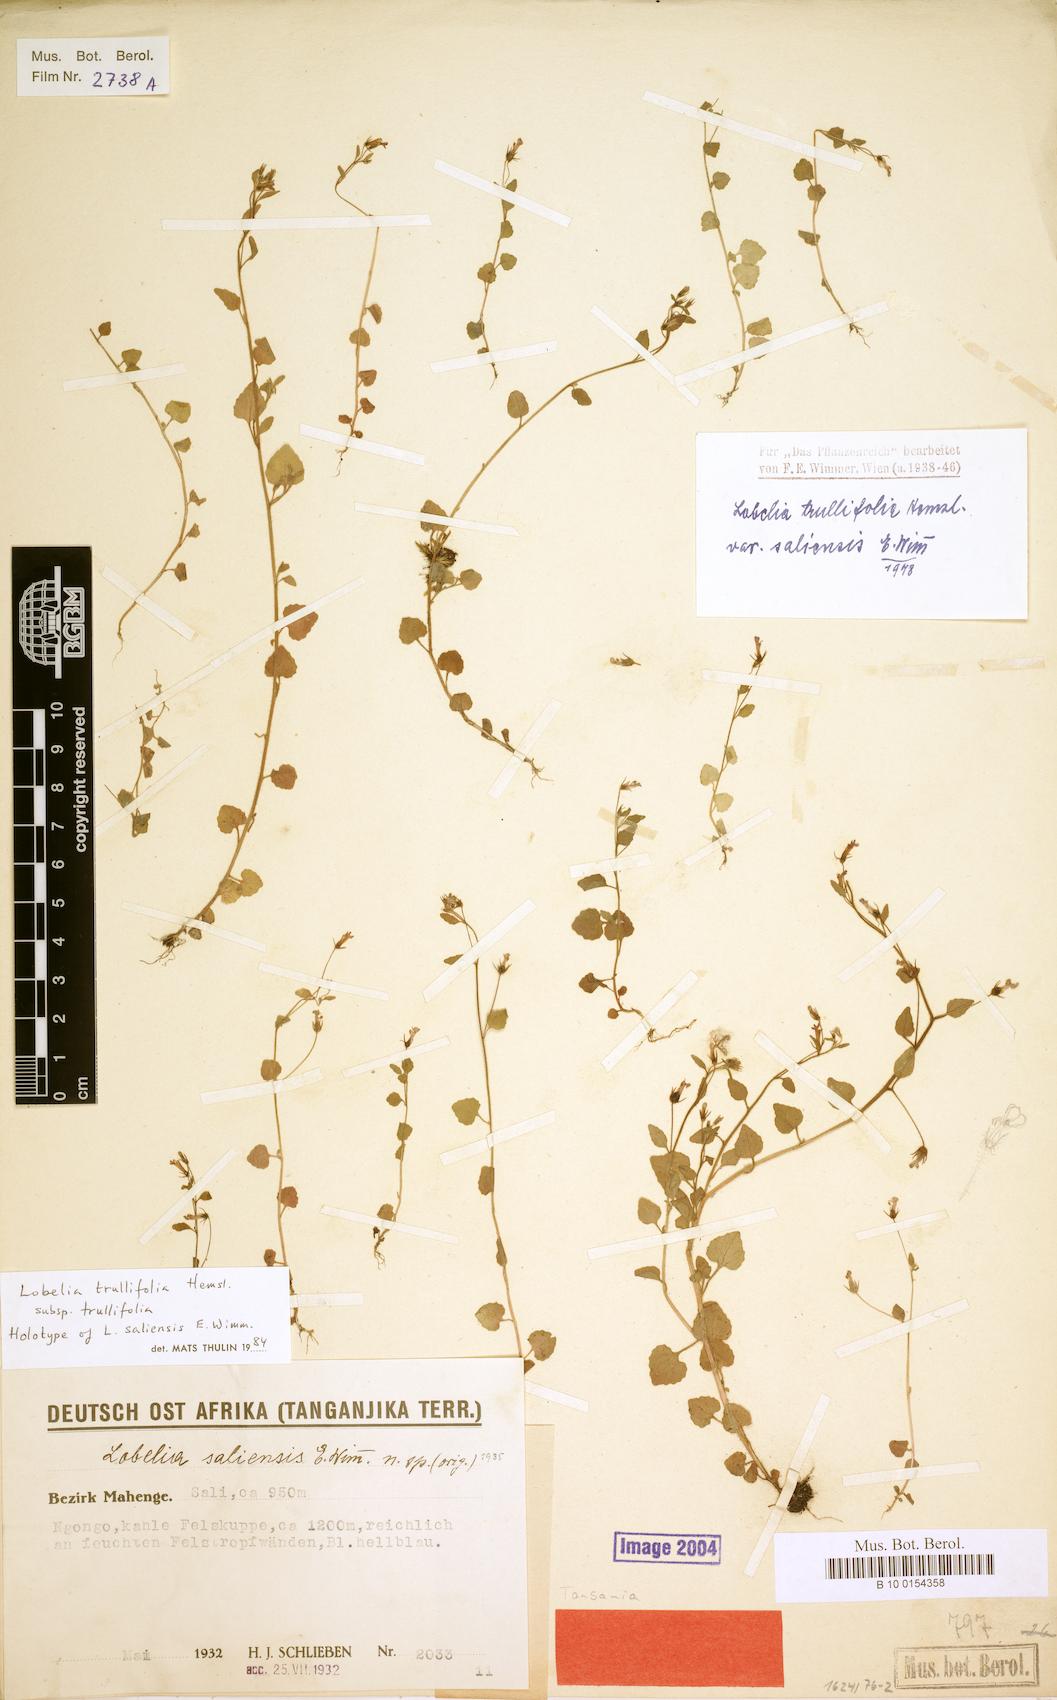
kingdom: Plantae
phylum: Tracheophyta
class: Magnoliopsida
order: Asterales
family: Campanulaceae
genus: Lobelia
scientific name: Lobelia trullifolia
